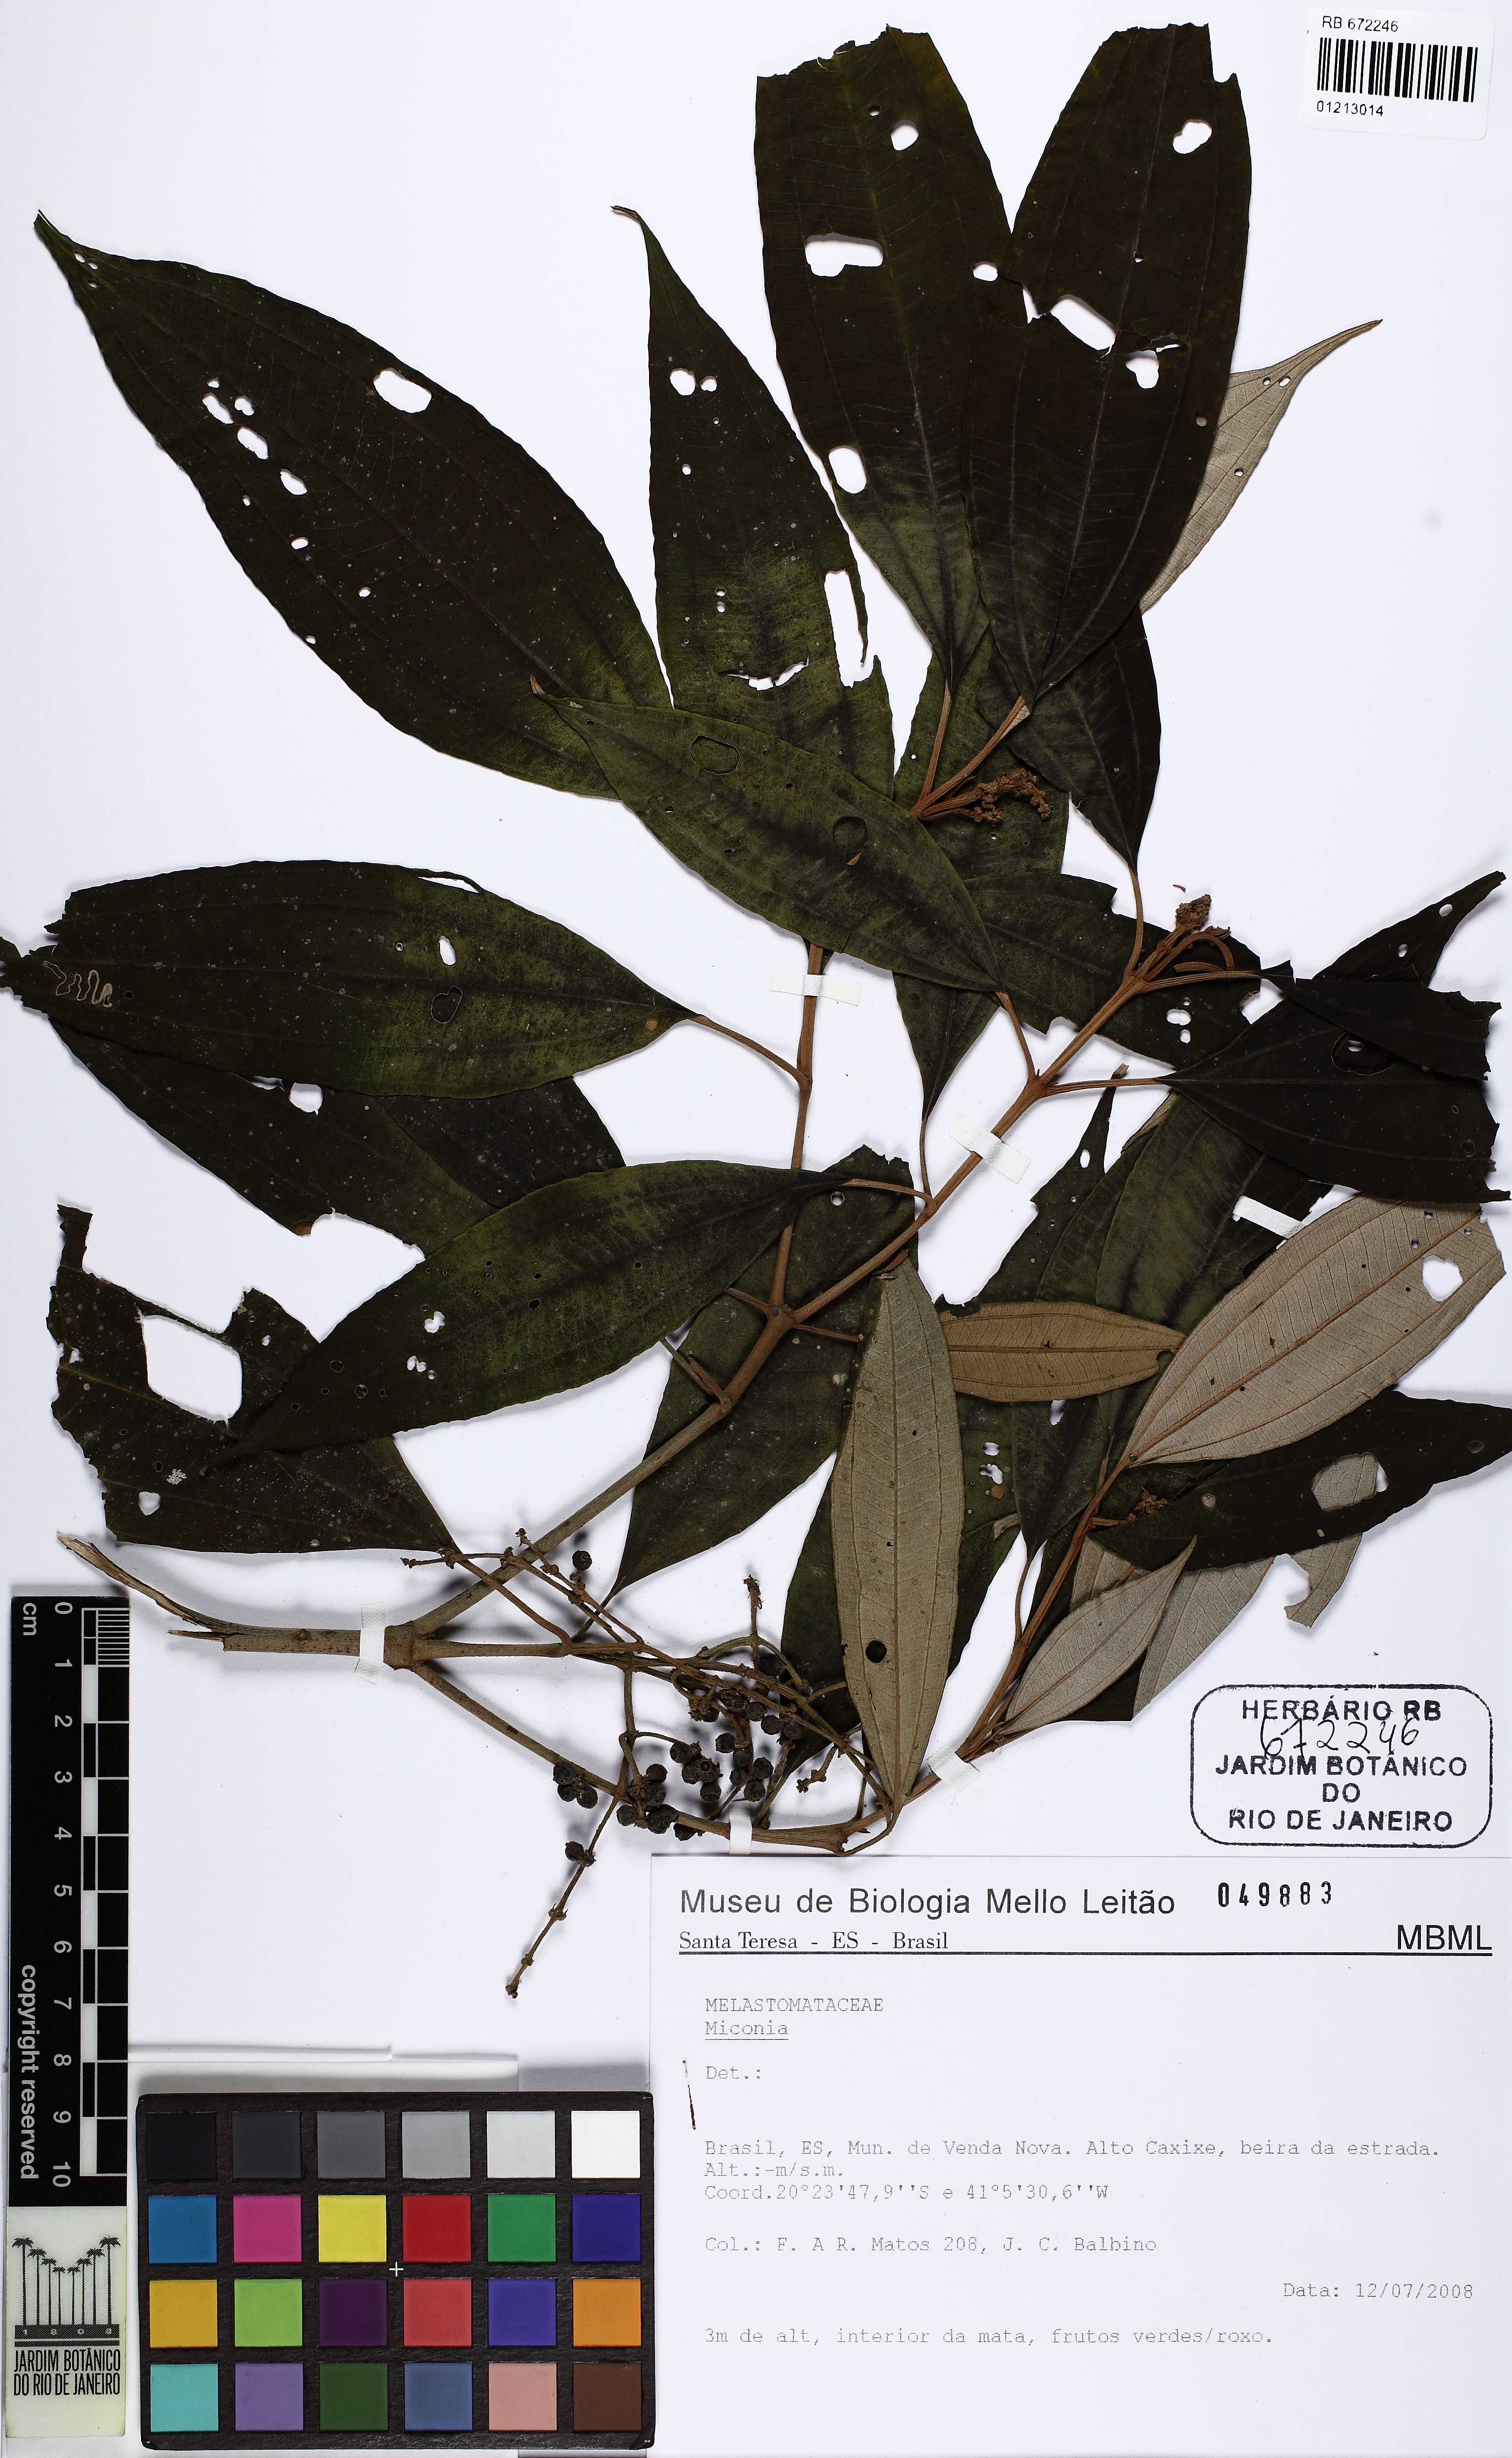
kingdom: Plantae
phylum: Tracheophyta
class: Magnoliopsida
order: Myrtales
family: Melastomataceae
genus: Miconia
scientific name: Miconia
